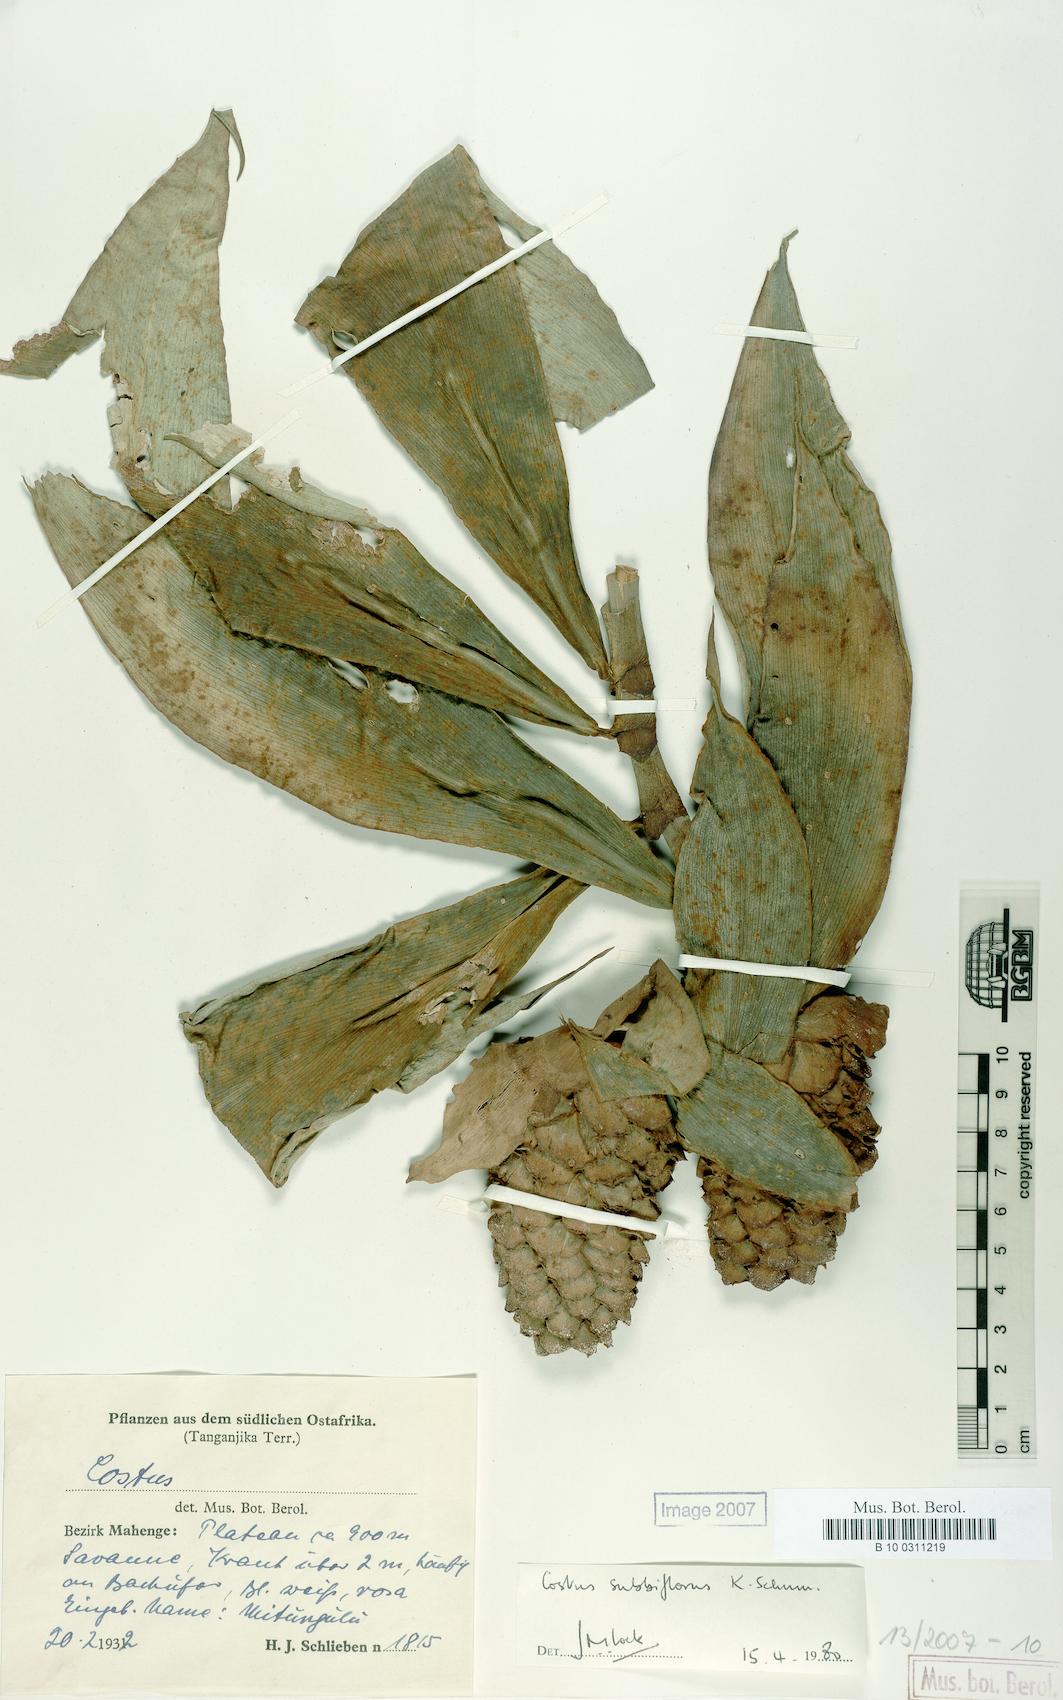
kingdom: Plantae
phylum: Tracheophyta
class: Liliopsida
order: Zingiberales
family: Costaceae
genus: Costus
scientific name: Costus afer
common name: Spiral-ginger
